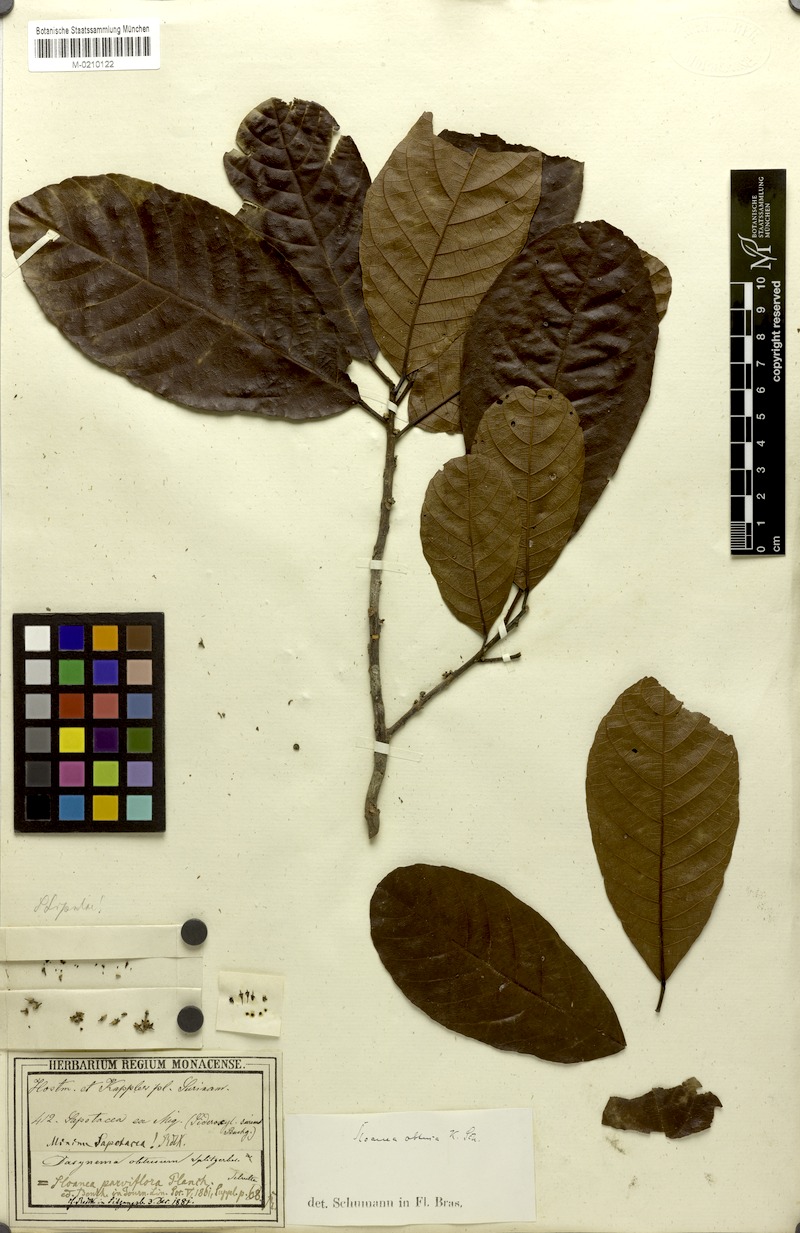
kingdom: Plantae
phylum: Tracheophyta
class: Magnoliopsida
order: Oxalidales
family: Elaeocarpaceae
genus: Sloanea
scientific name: Sloanea kappleriana
